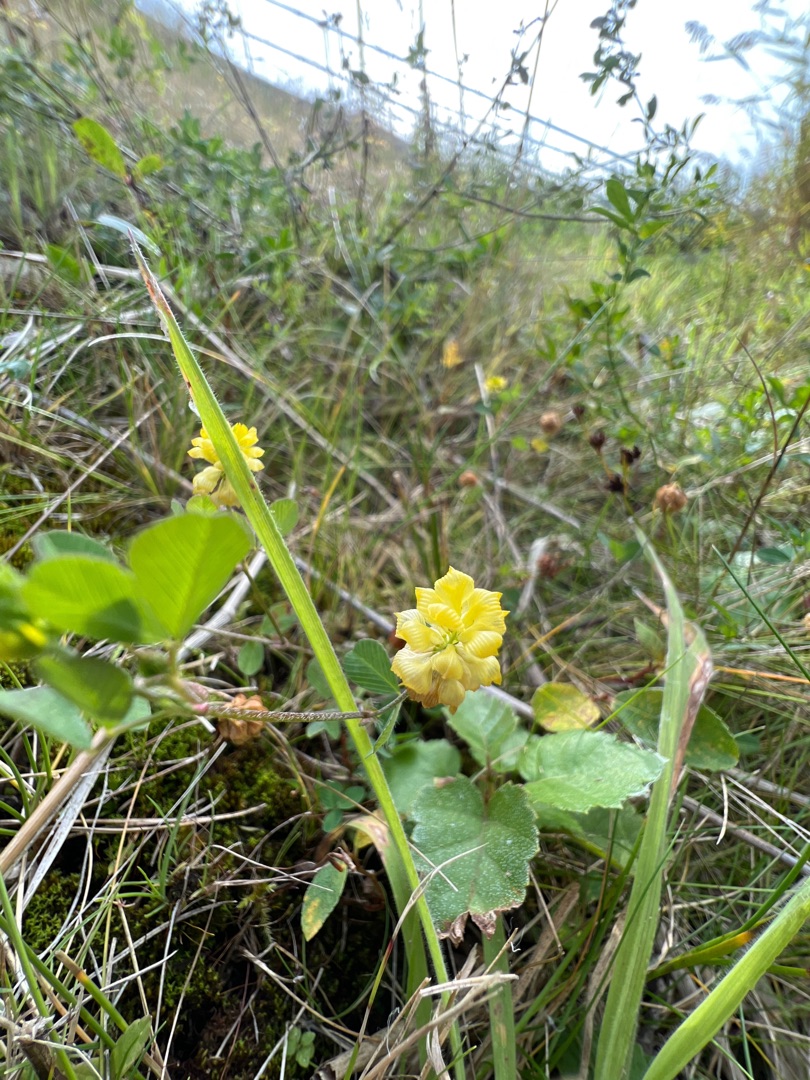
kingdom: Plantae
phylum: Tracheophyta
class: Magnoliopsida
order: Fabales
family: Fabaceae
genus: Trifolium
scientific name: Trifolium campestre
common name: Gul kløver
